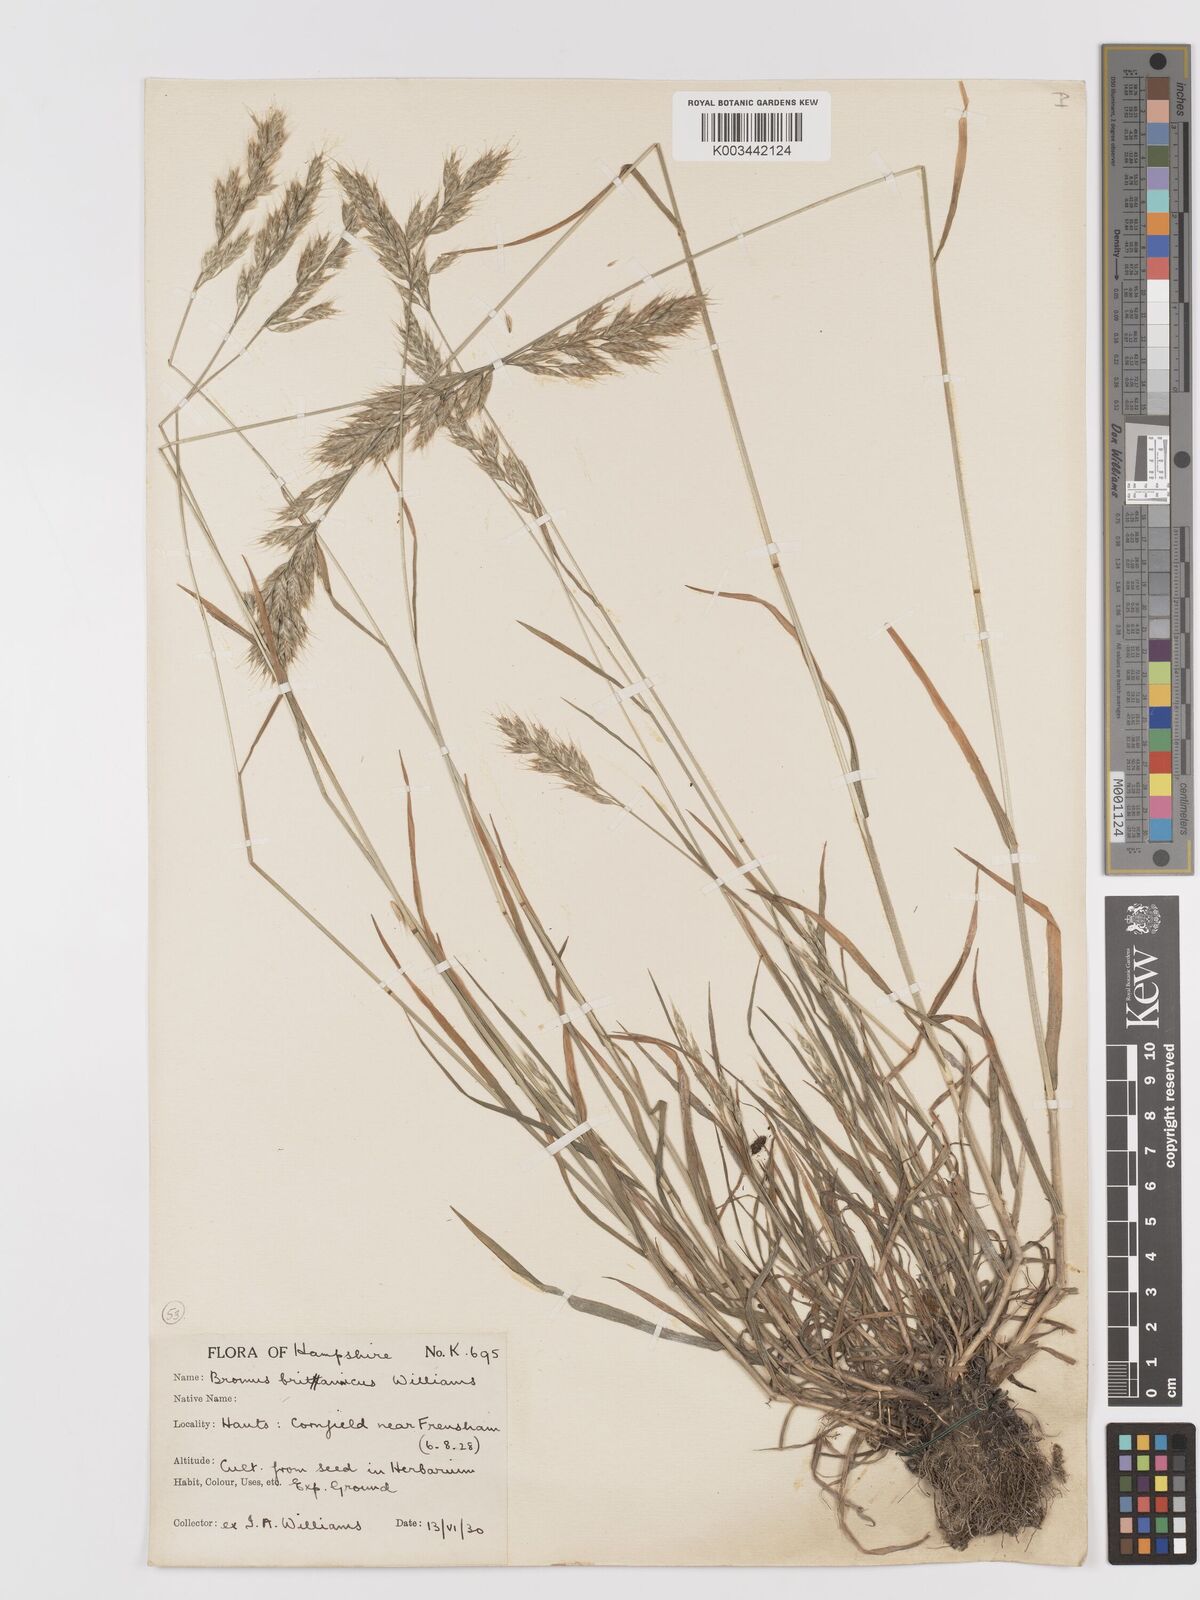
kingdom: Plantae
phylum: Tracheophyta
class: Liliopsida
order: Poales
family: Poaceae
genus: Bromus
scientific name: Bromus lepidus
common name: Slender soft-brome
